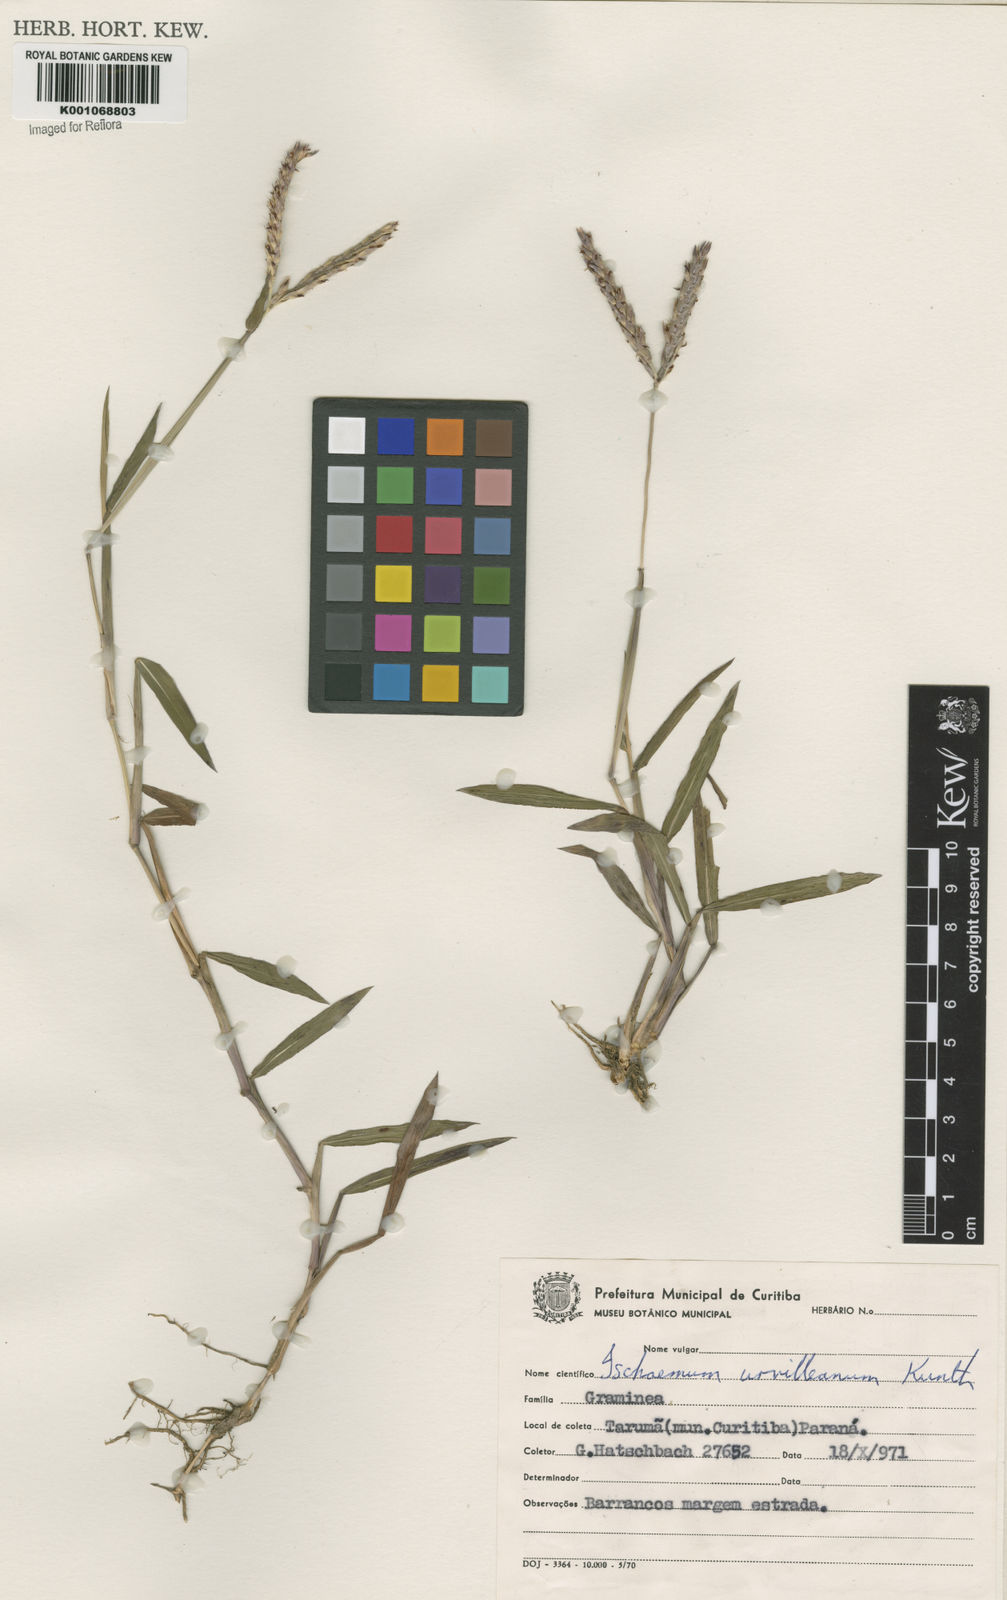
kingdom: Plantae
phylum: Tracheophyta
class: Liliopsida
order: Poales
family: Poaceae
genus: Ischaemum
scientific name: Ischaemum minus
